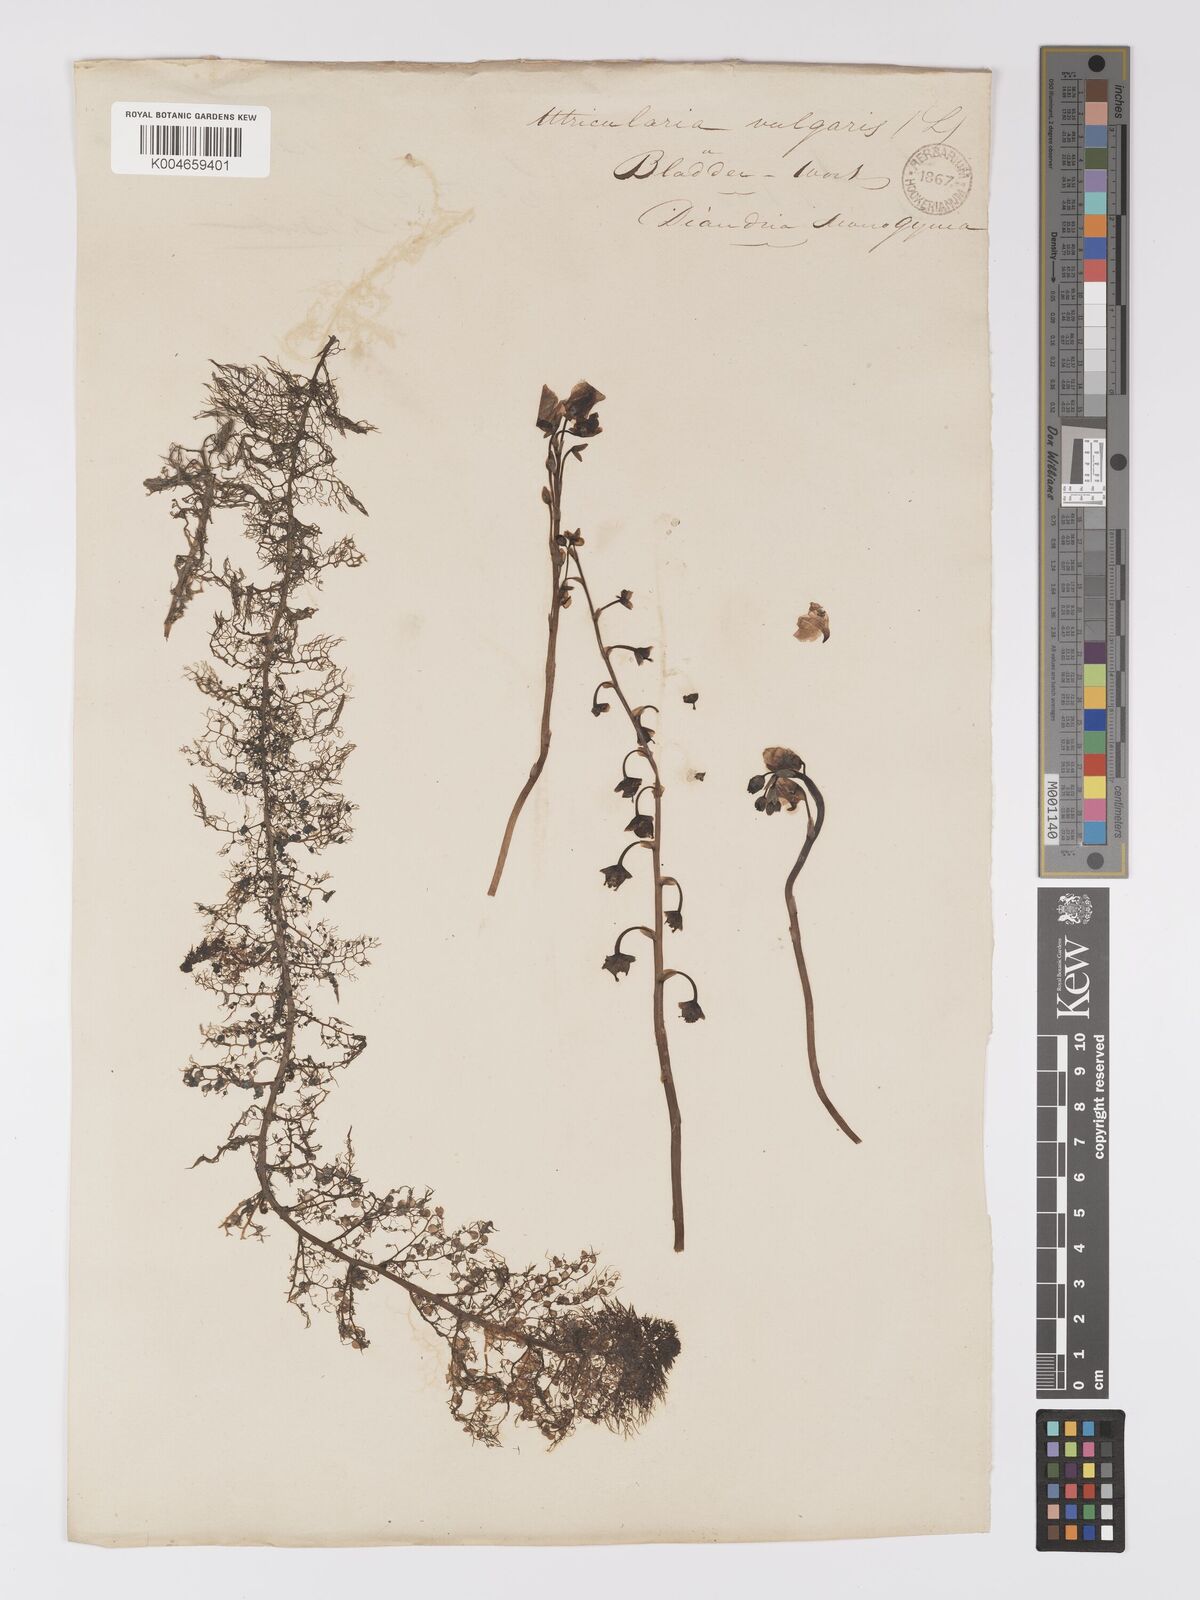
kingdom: Plantae
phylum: Tracheophyta
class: Magnoliopsida
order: Lamiales
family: Lentibulariaceae
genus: Utricularia
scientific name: Utricularia macrorhiza
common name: Common bladderwort
